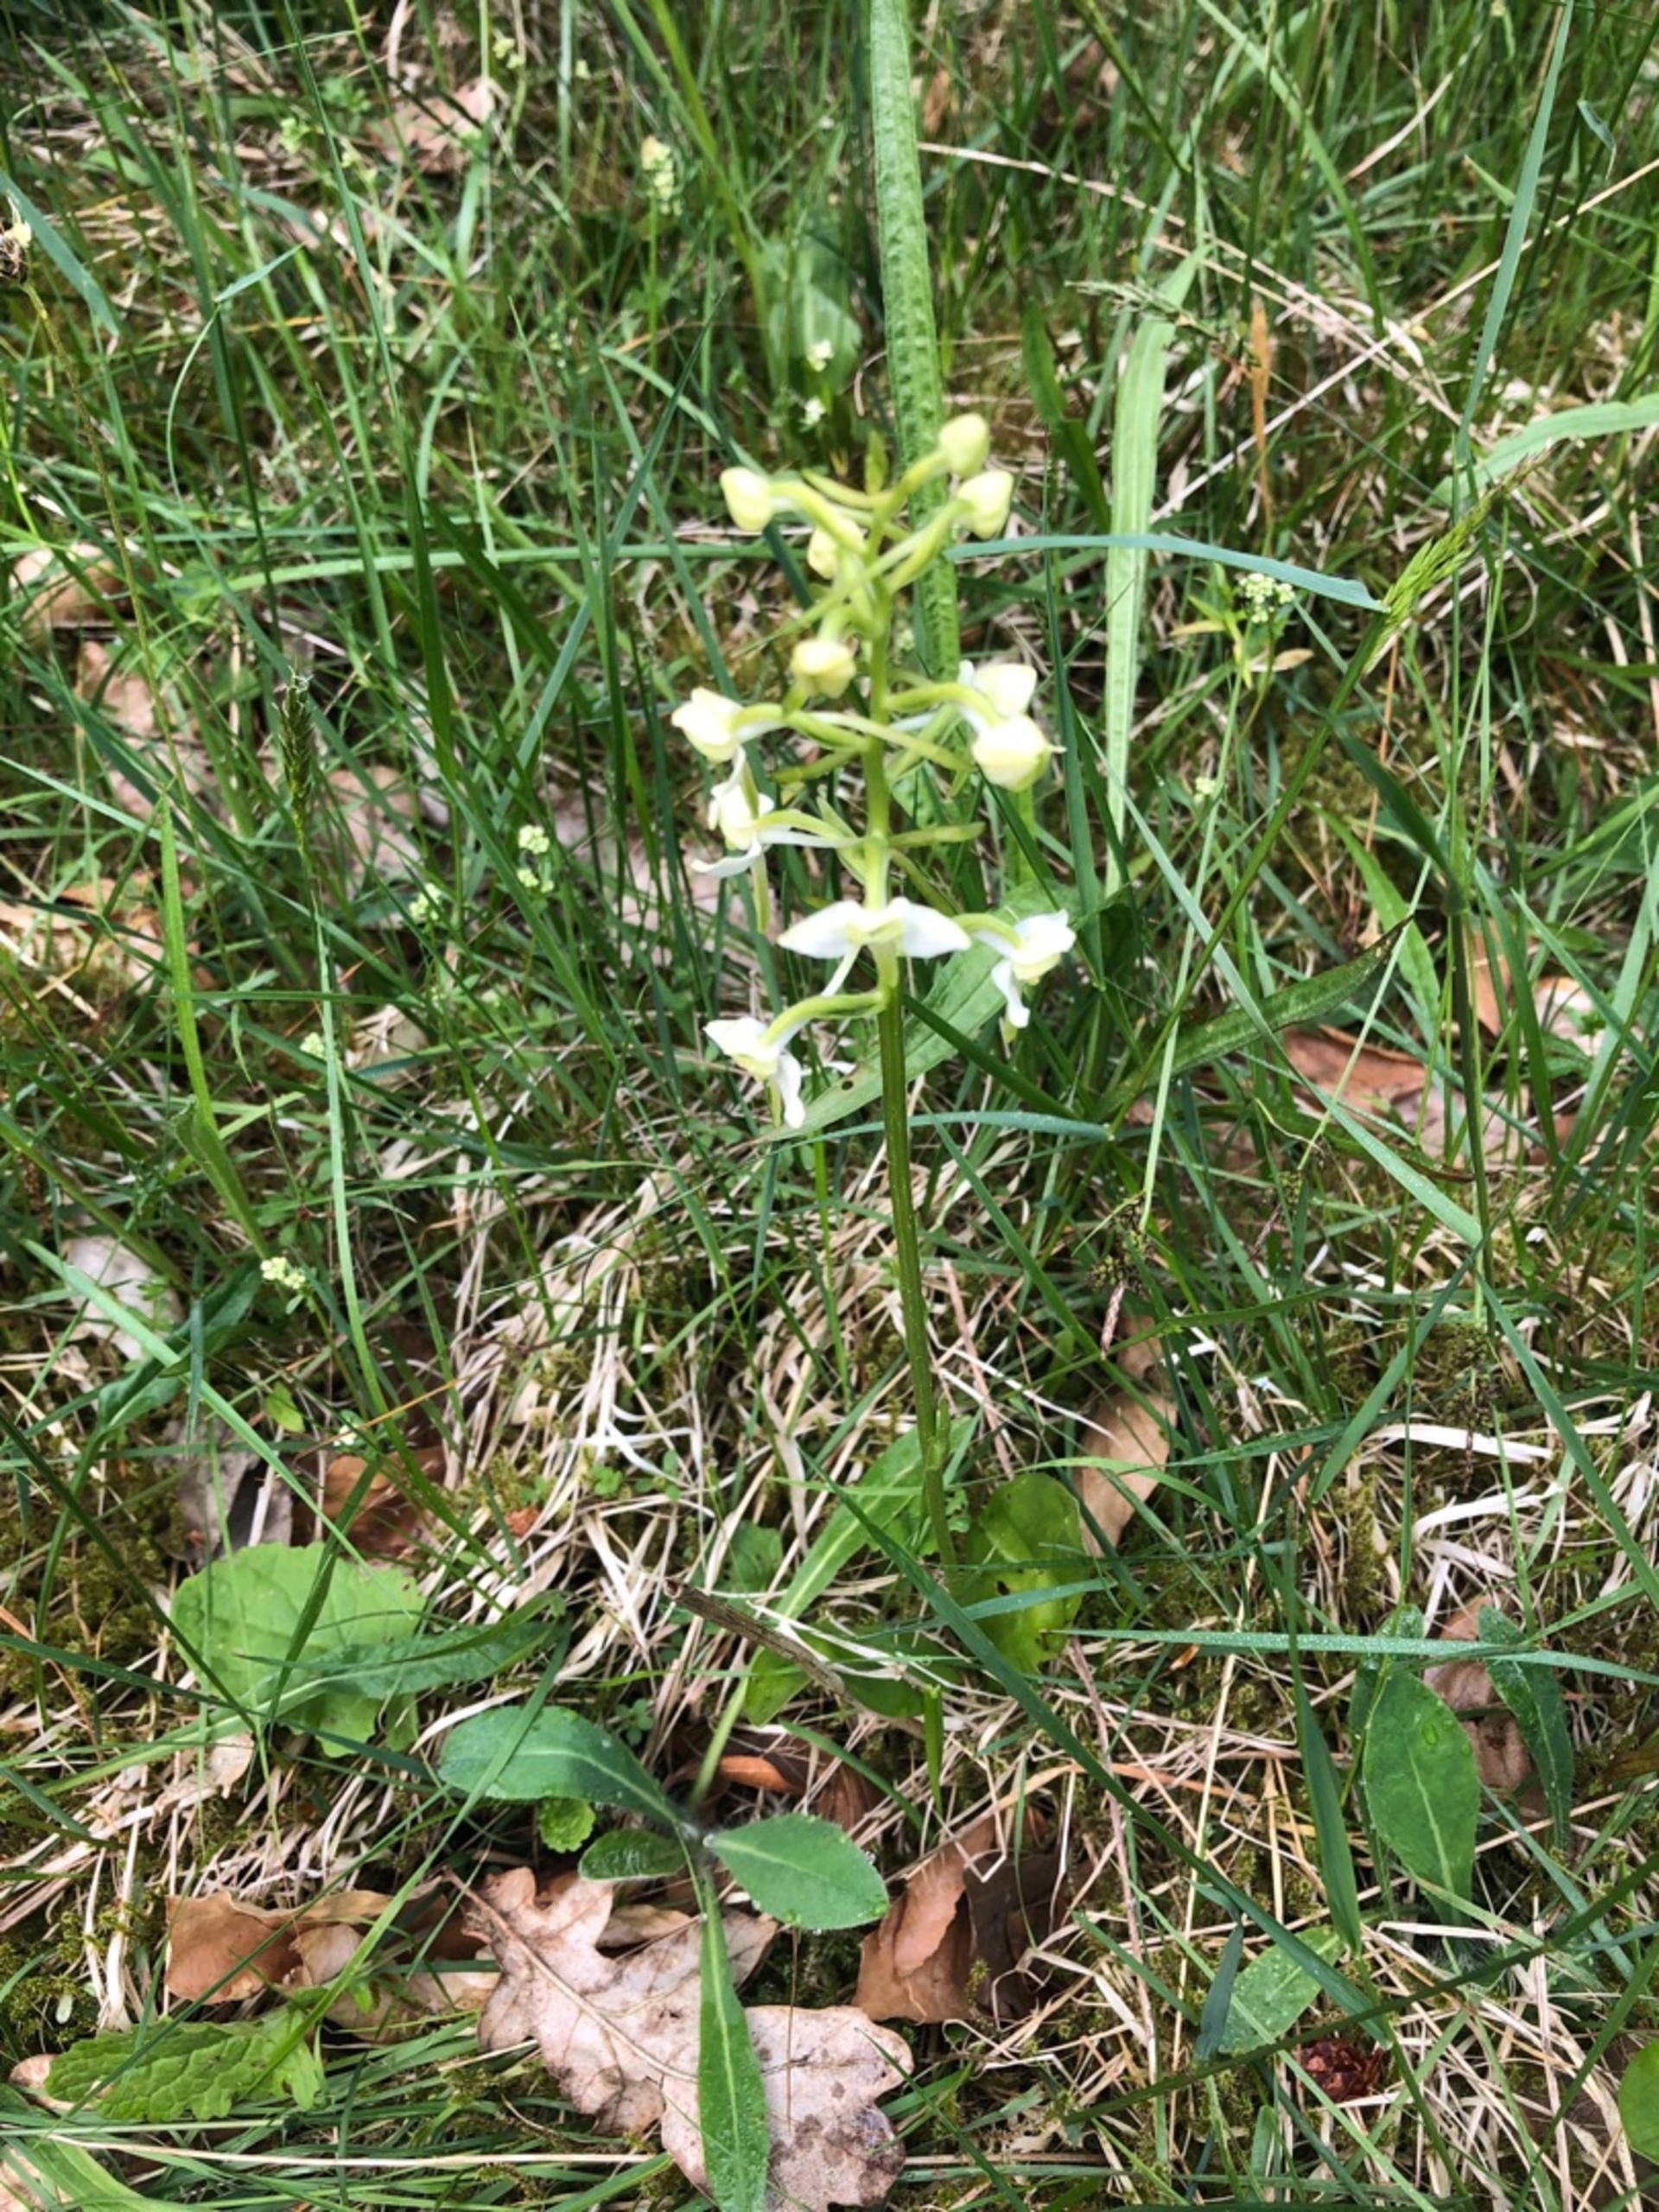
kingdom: Plantae
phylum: Tracheophyta
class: Liliopsida
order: Asparagales
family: Orchidaceae
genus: Platanthera
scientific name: Platanthera chlorantha
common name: Skov-gøgelilje
